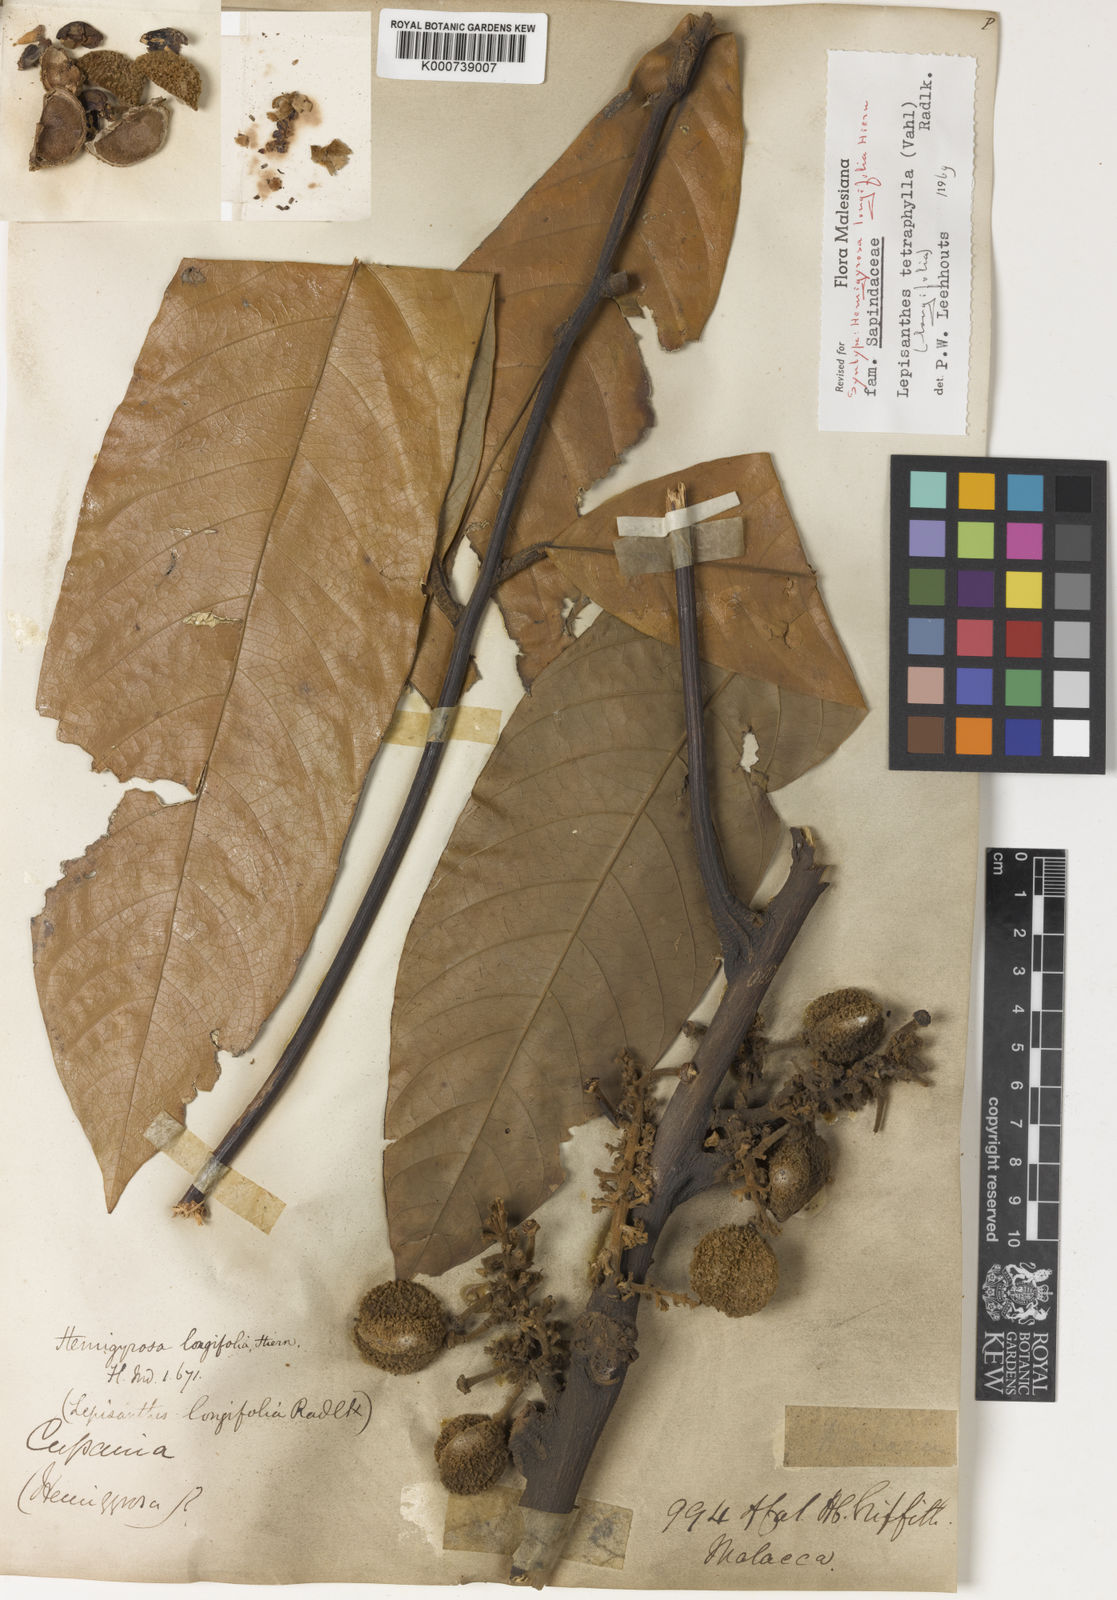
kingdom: Plantae
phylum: Tracheophyta
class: Magnoliopsida
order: Sapindales
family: Sapindaceae
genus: Lepisanthes
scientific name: Lepisanthes tetraphylla
